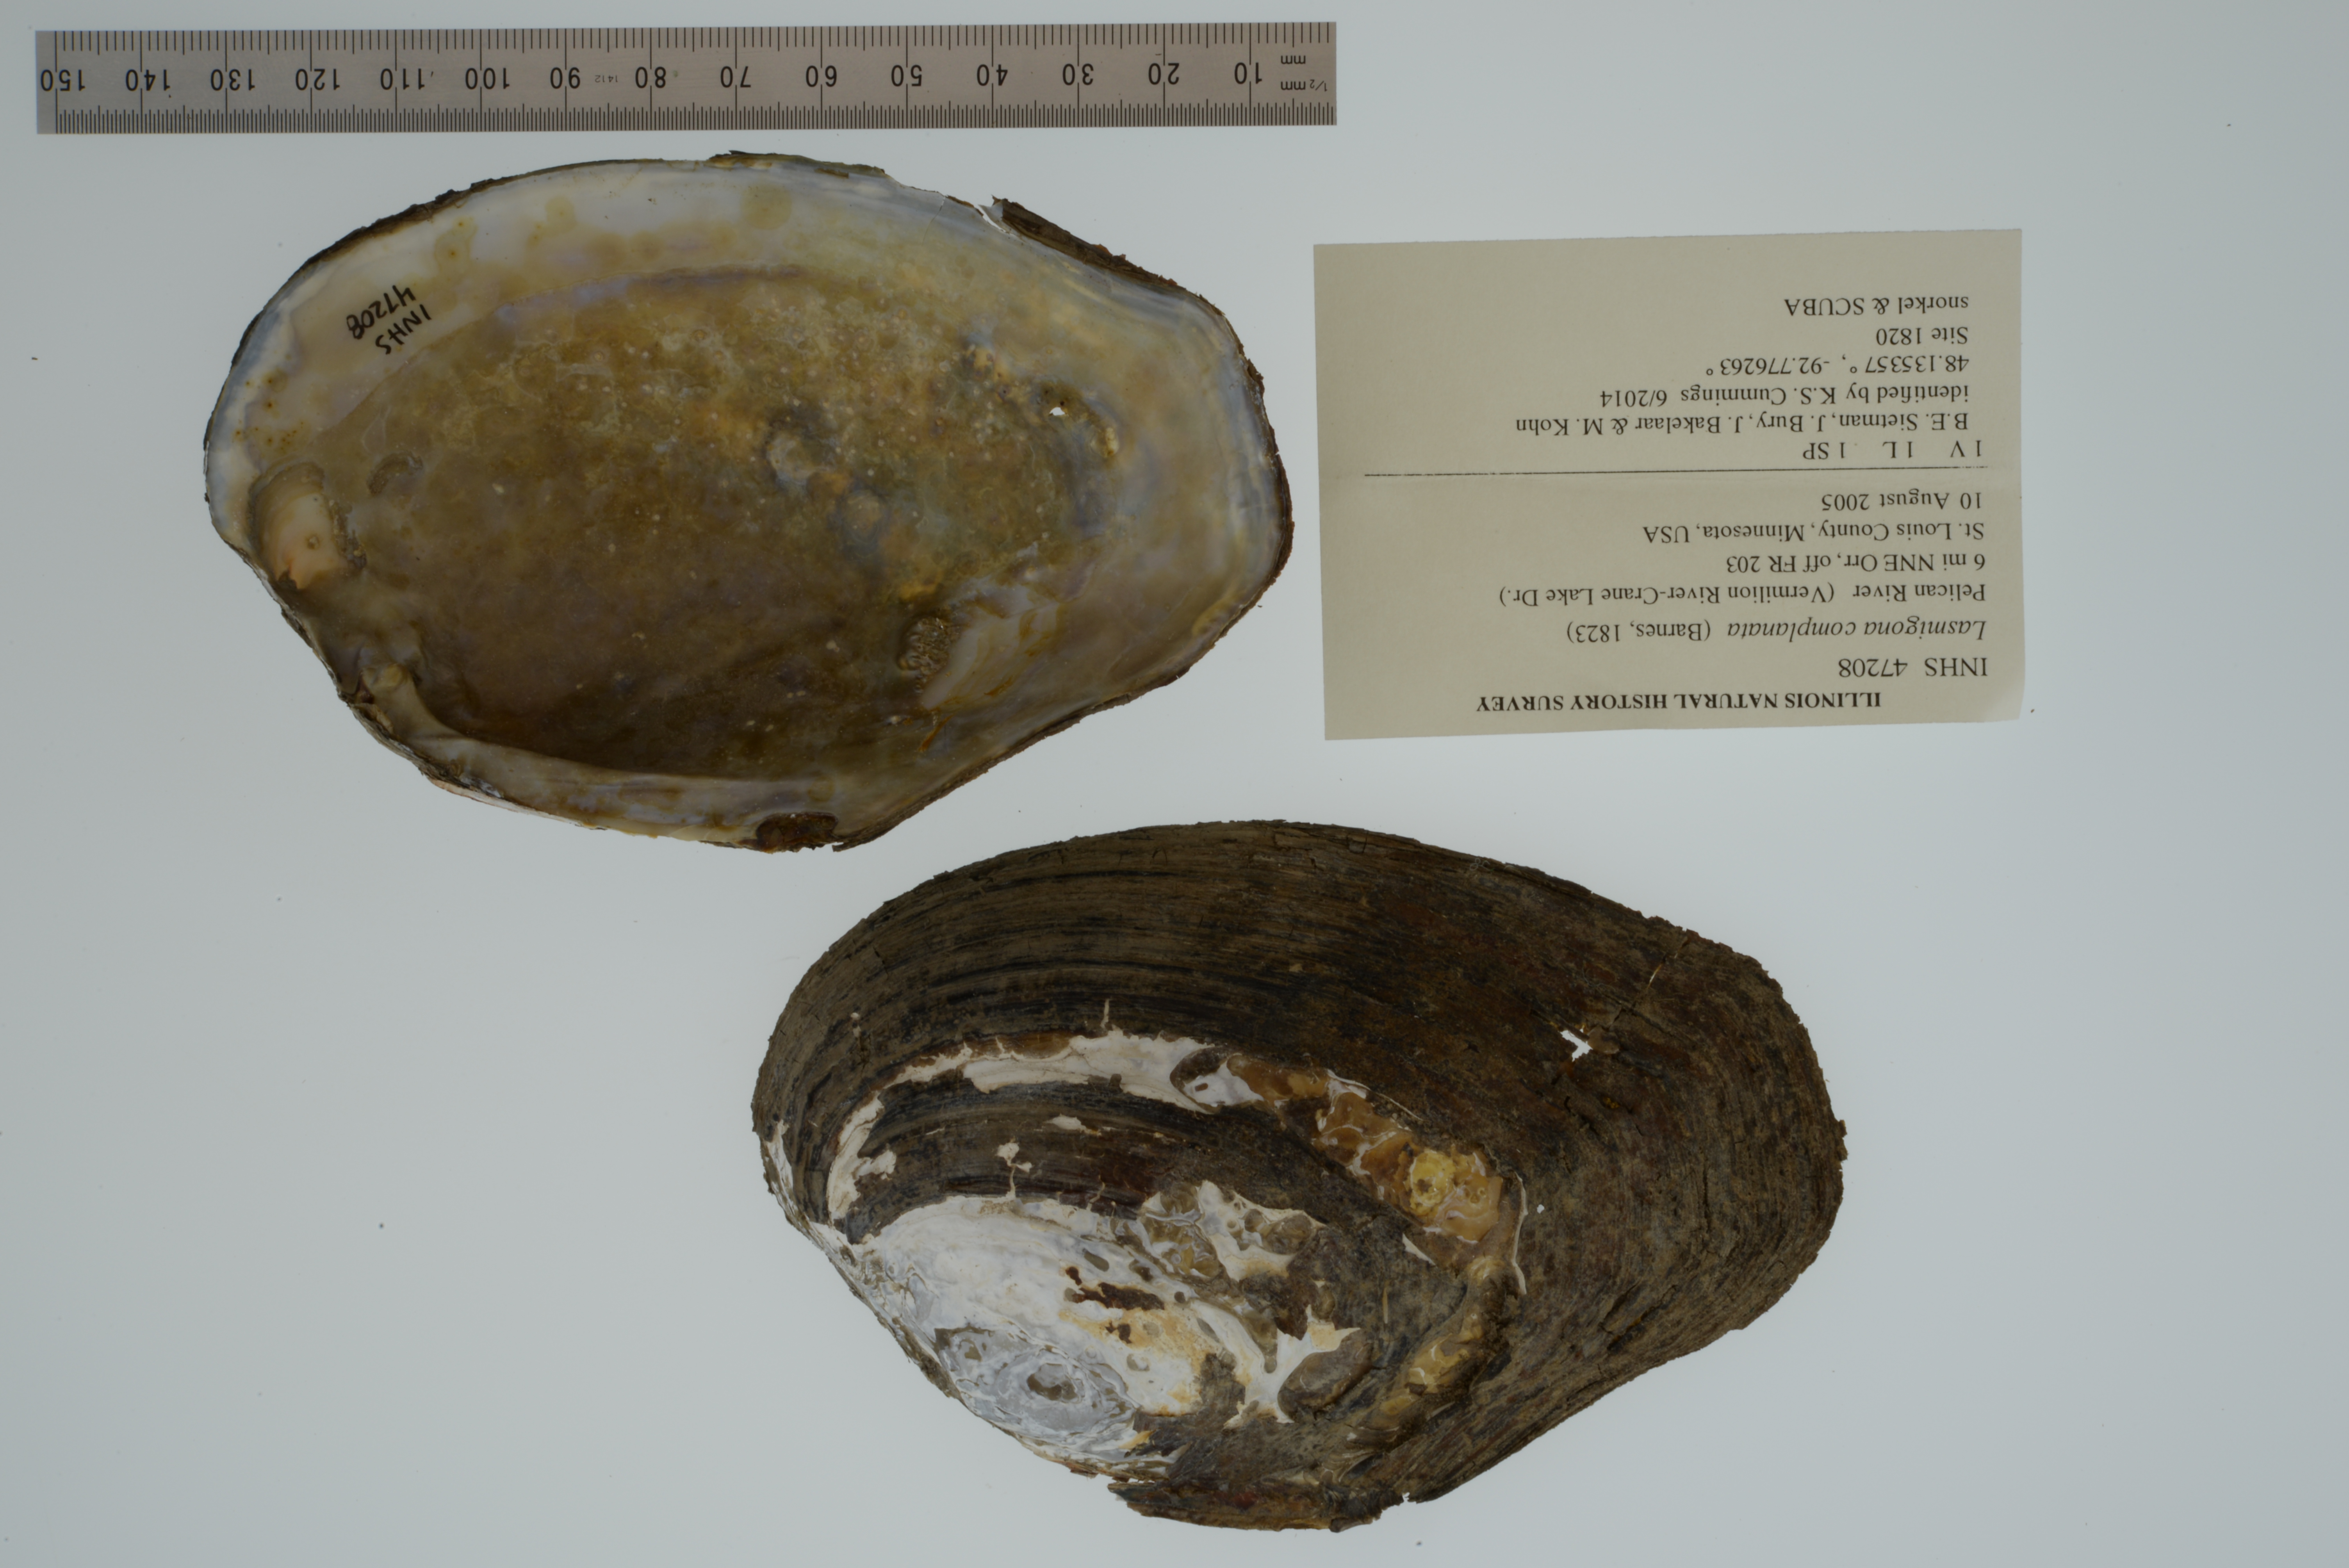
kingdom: Animalia
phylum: Mollusca
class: Bivalvia
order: Unionida
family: Unionidae
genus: Lasmigona
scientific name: Lasmigona complanata
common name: White heelsplitter
